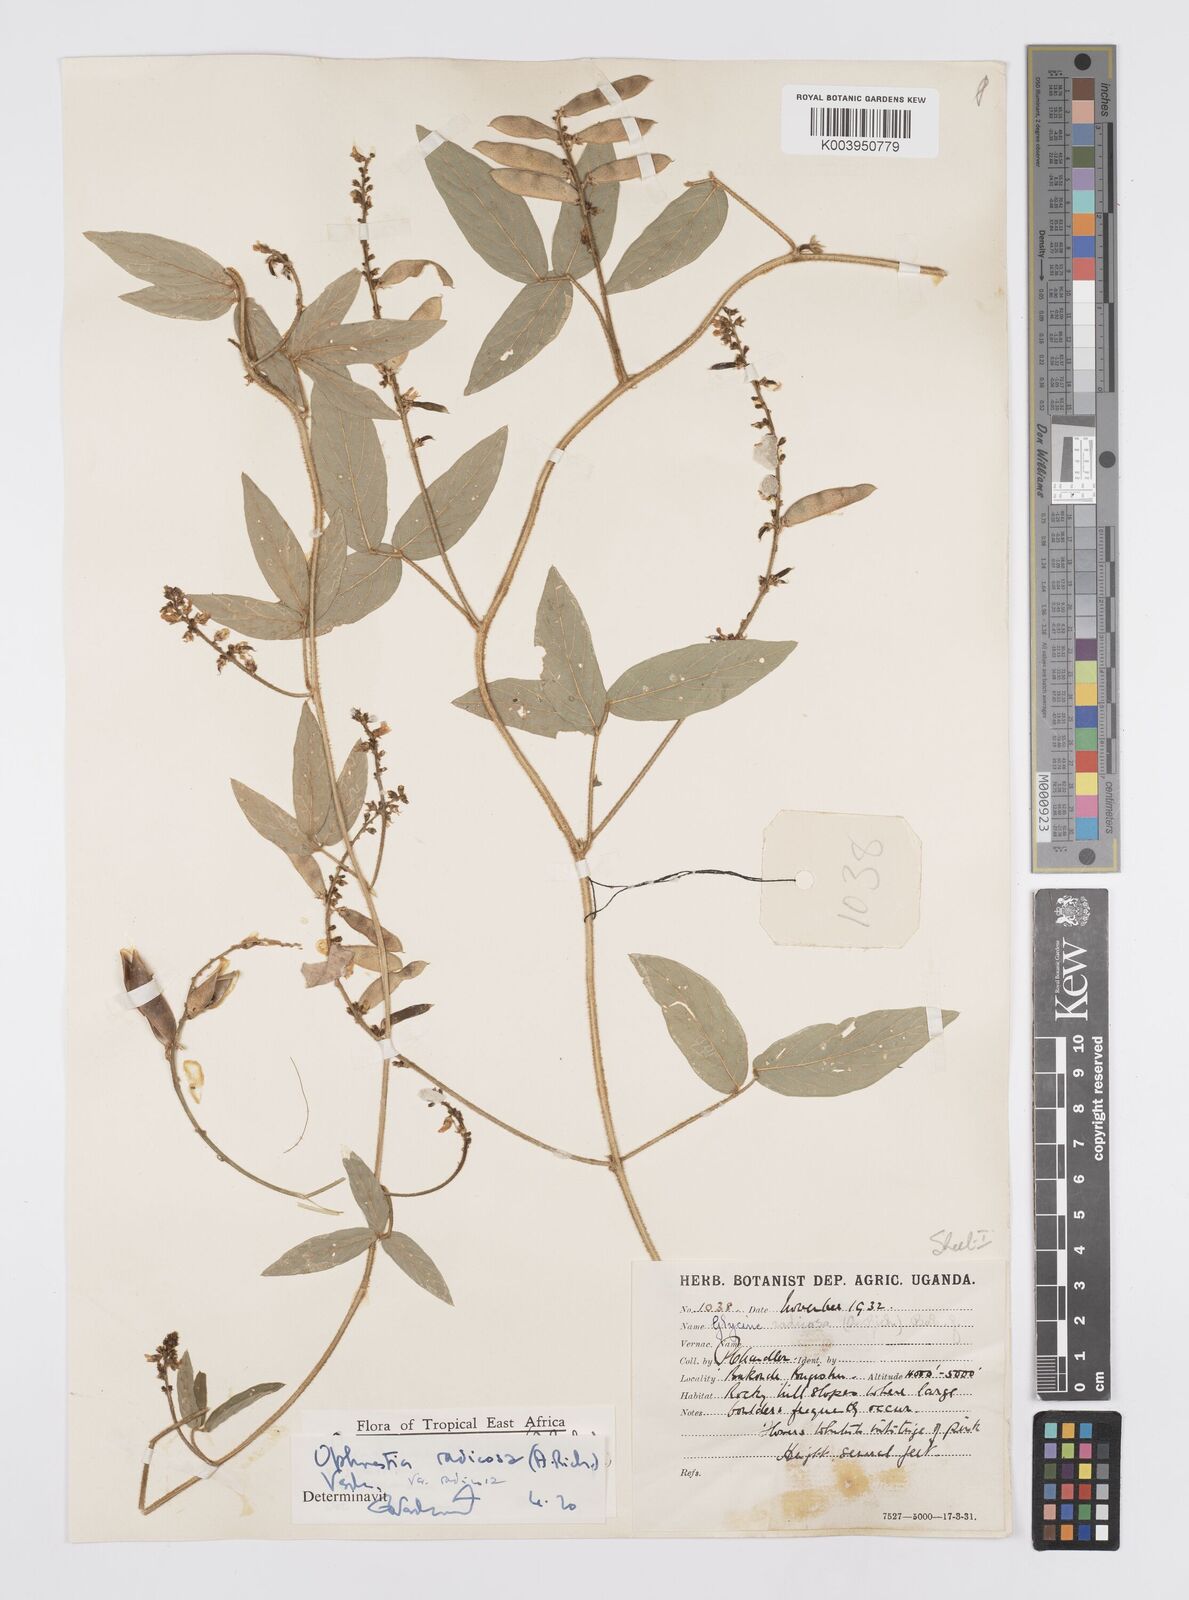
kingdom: Plantae
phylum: Tracheophyta
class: Magnoliopsida
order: Fabales
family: Fabaceae
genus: Ophrestia
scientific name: Ophrestia radicosa
